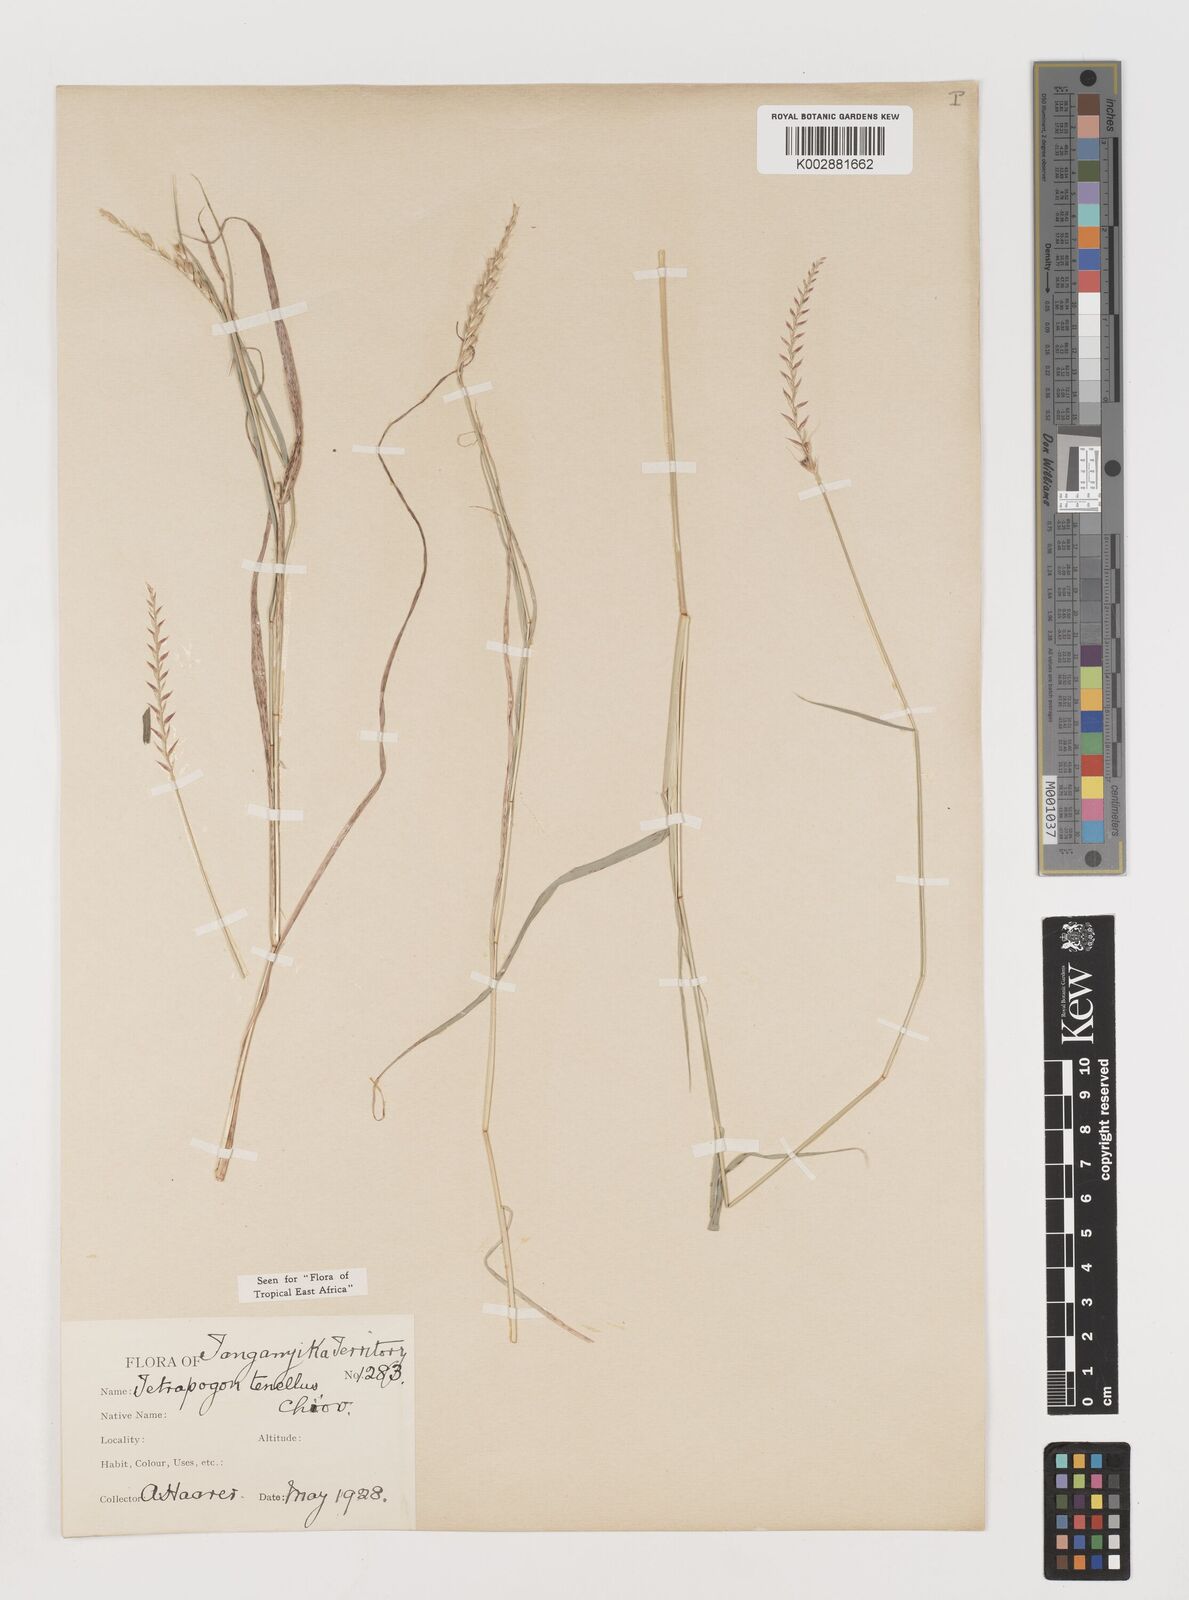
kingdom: Plantae
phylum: Tracheophyta
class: Liliopsida
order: Poales
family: Poaceae
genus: Tetrapogon
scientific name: Tetrapogon tenellus
